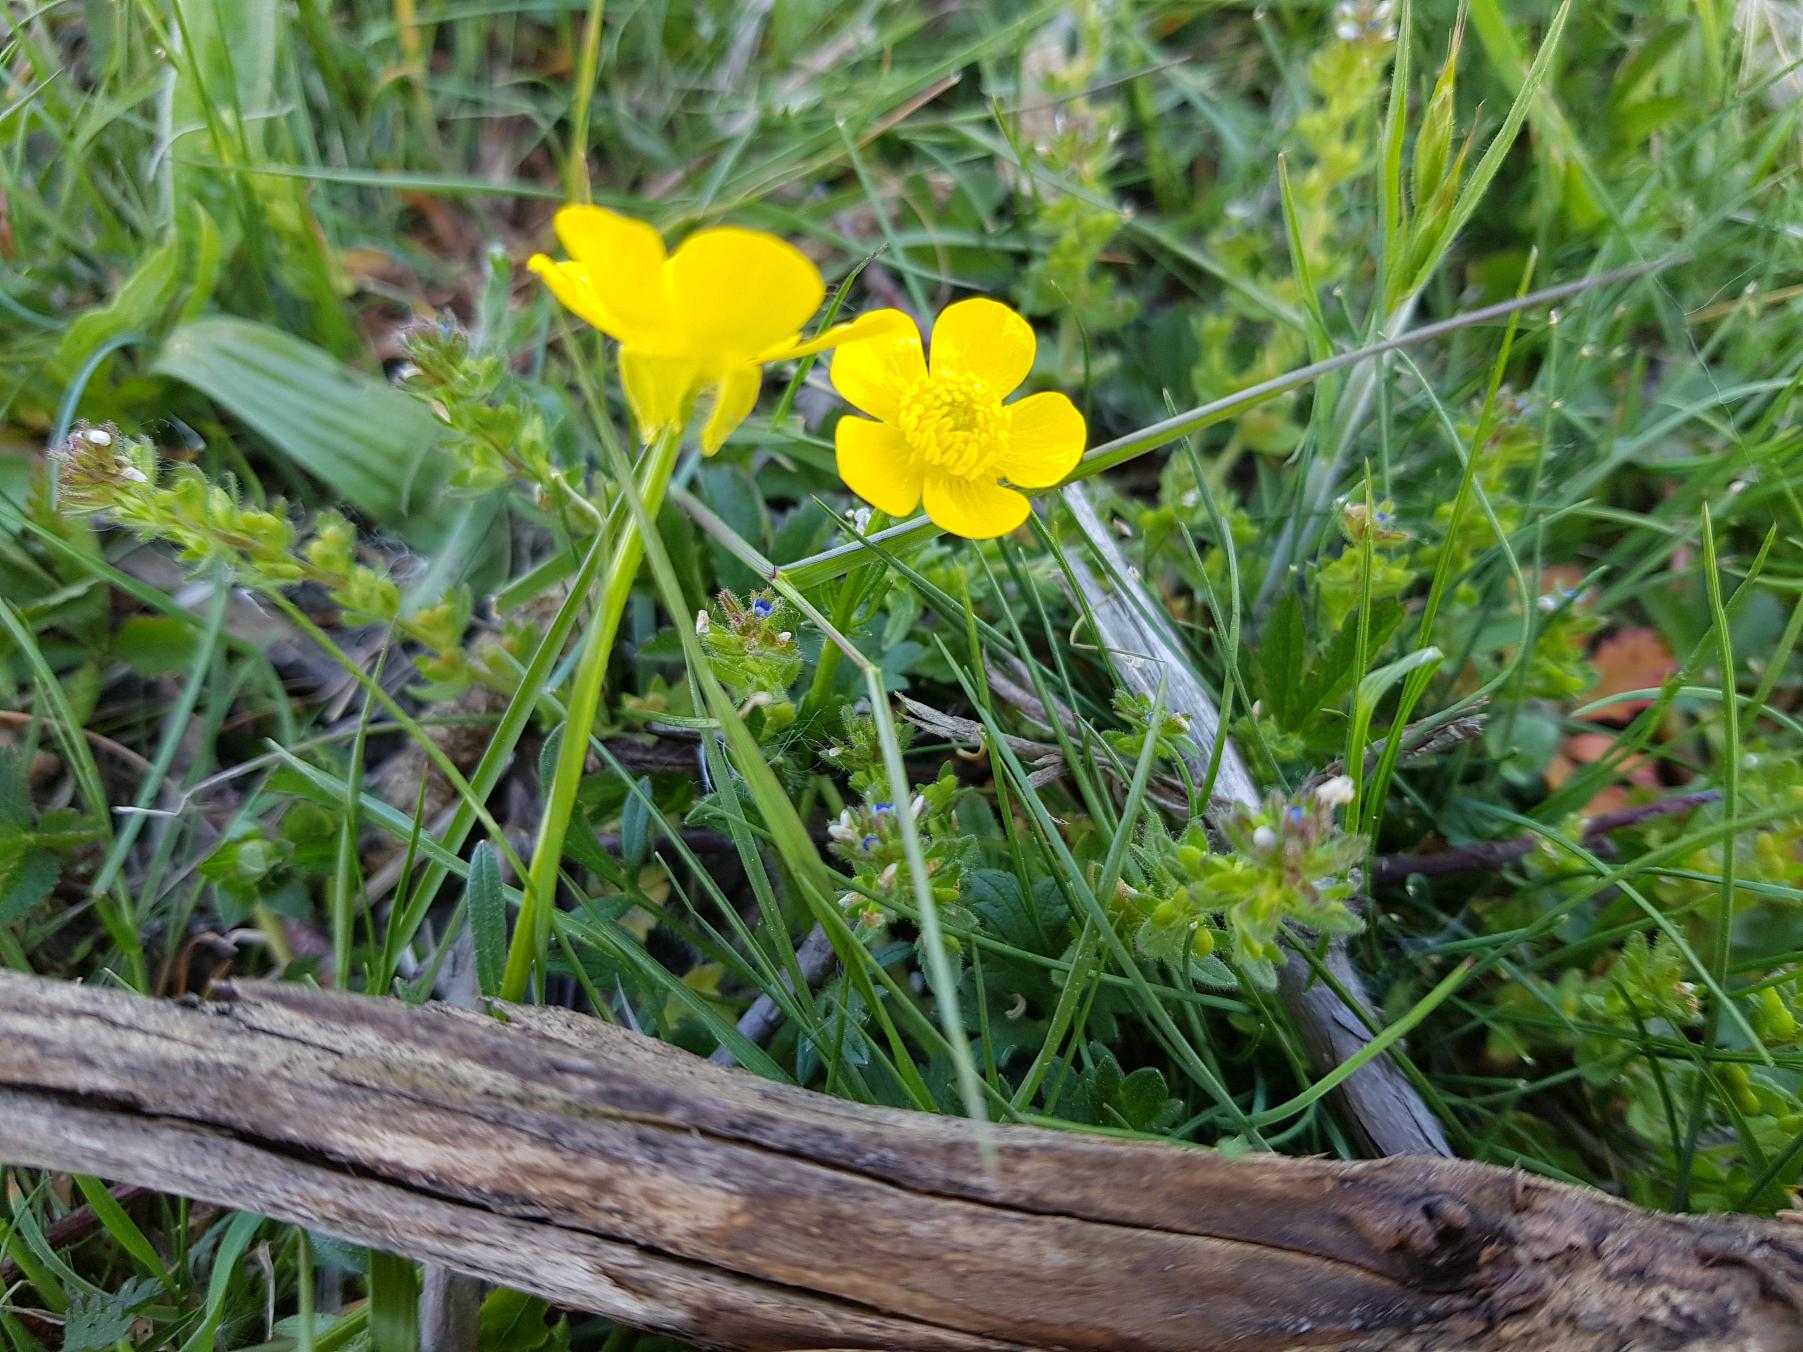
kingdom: Plantae
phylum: Tracheophyta
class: Magnoliopsida
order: Ranunculales
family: Ranunculaceae
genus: Ranunculus
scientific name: Ranunculus sardous
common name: Stivhåret ranunkel
